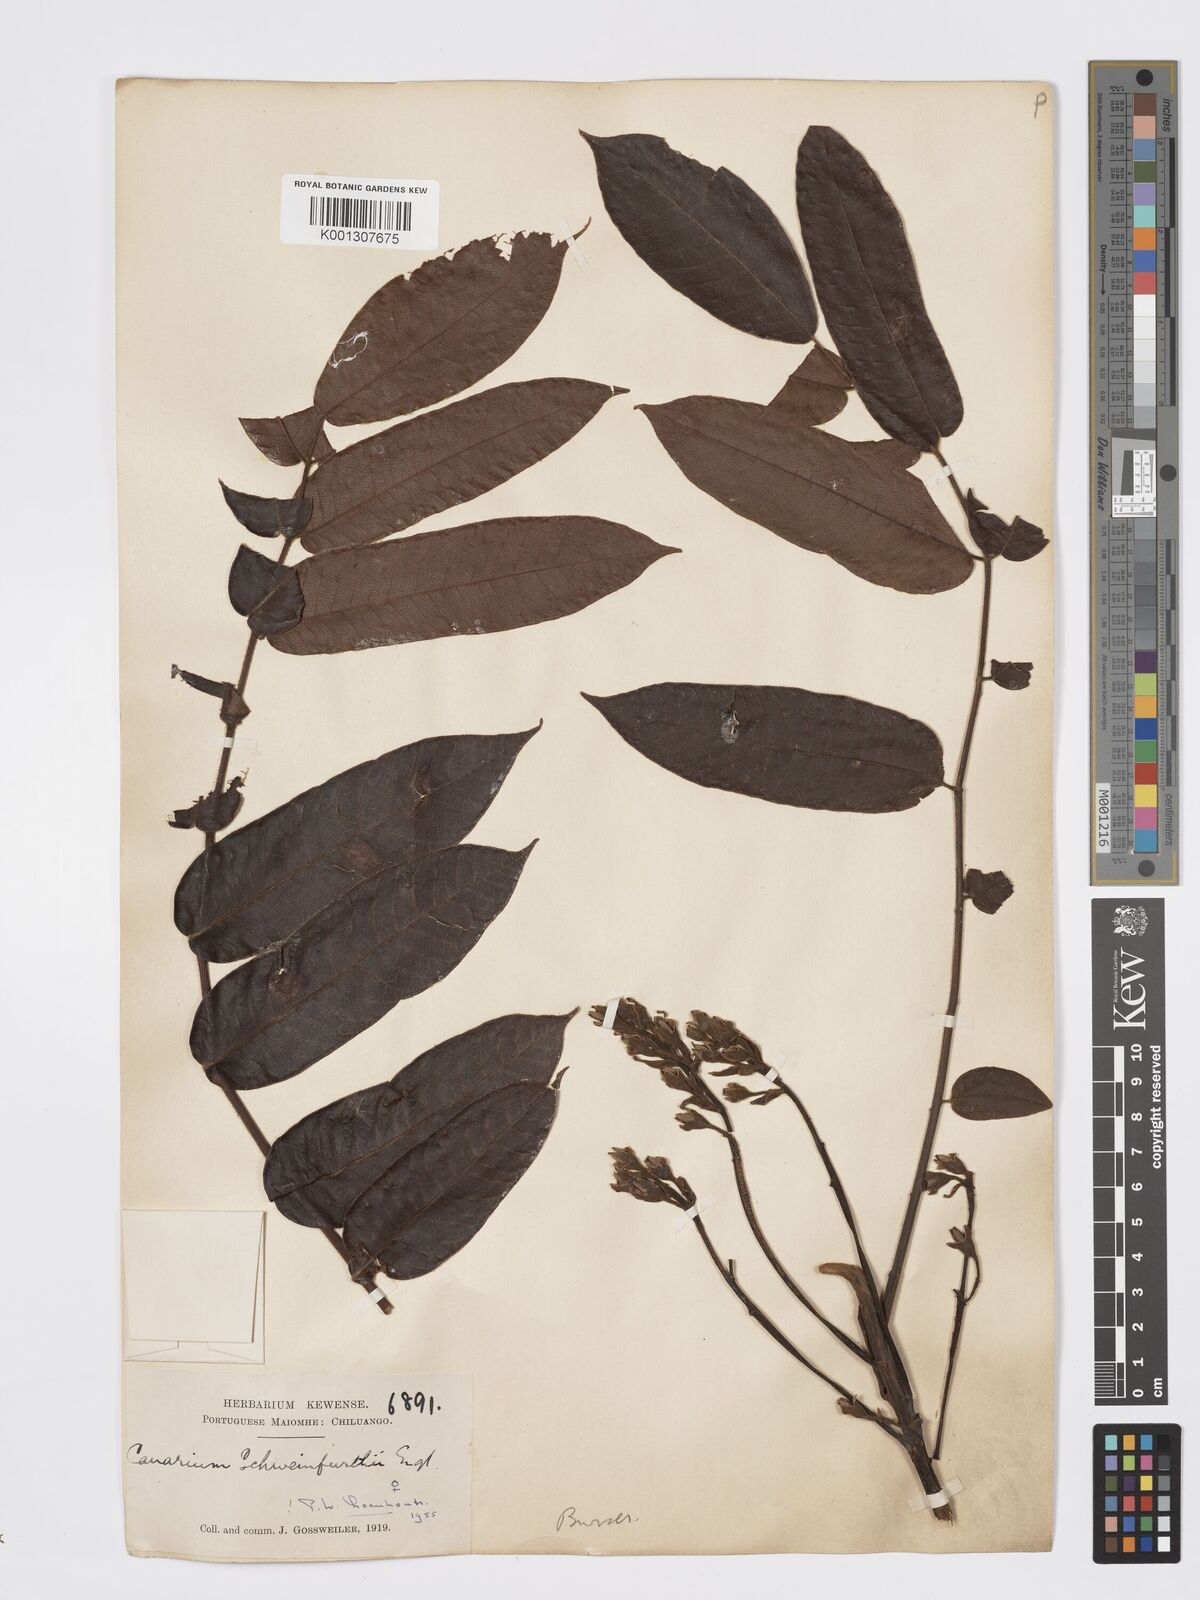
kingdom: Plantae
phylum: Tracheophyta
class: Magnoliopsida
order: Sapindales
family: Burseraceae
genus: Canarium
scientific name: Canarium schweinfurthii
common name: African elemi
